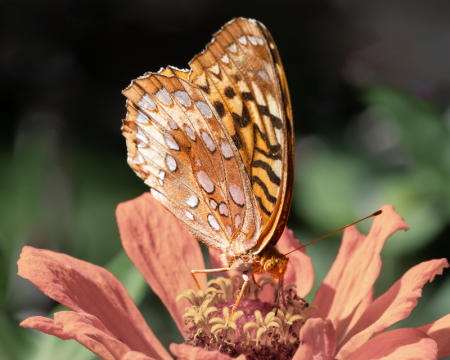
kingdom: Animalia
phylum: Arthropoda
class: Insecta
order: Lepidoptera
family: Nymphalidae
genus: Speyeria
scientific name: Speyeria cybele
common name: Great Spangled Fritillary
